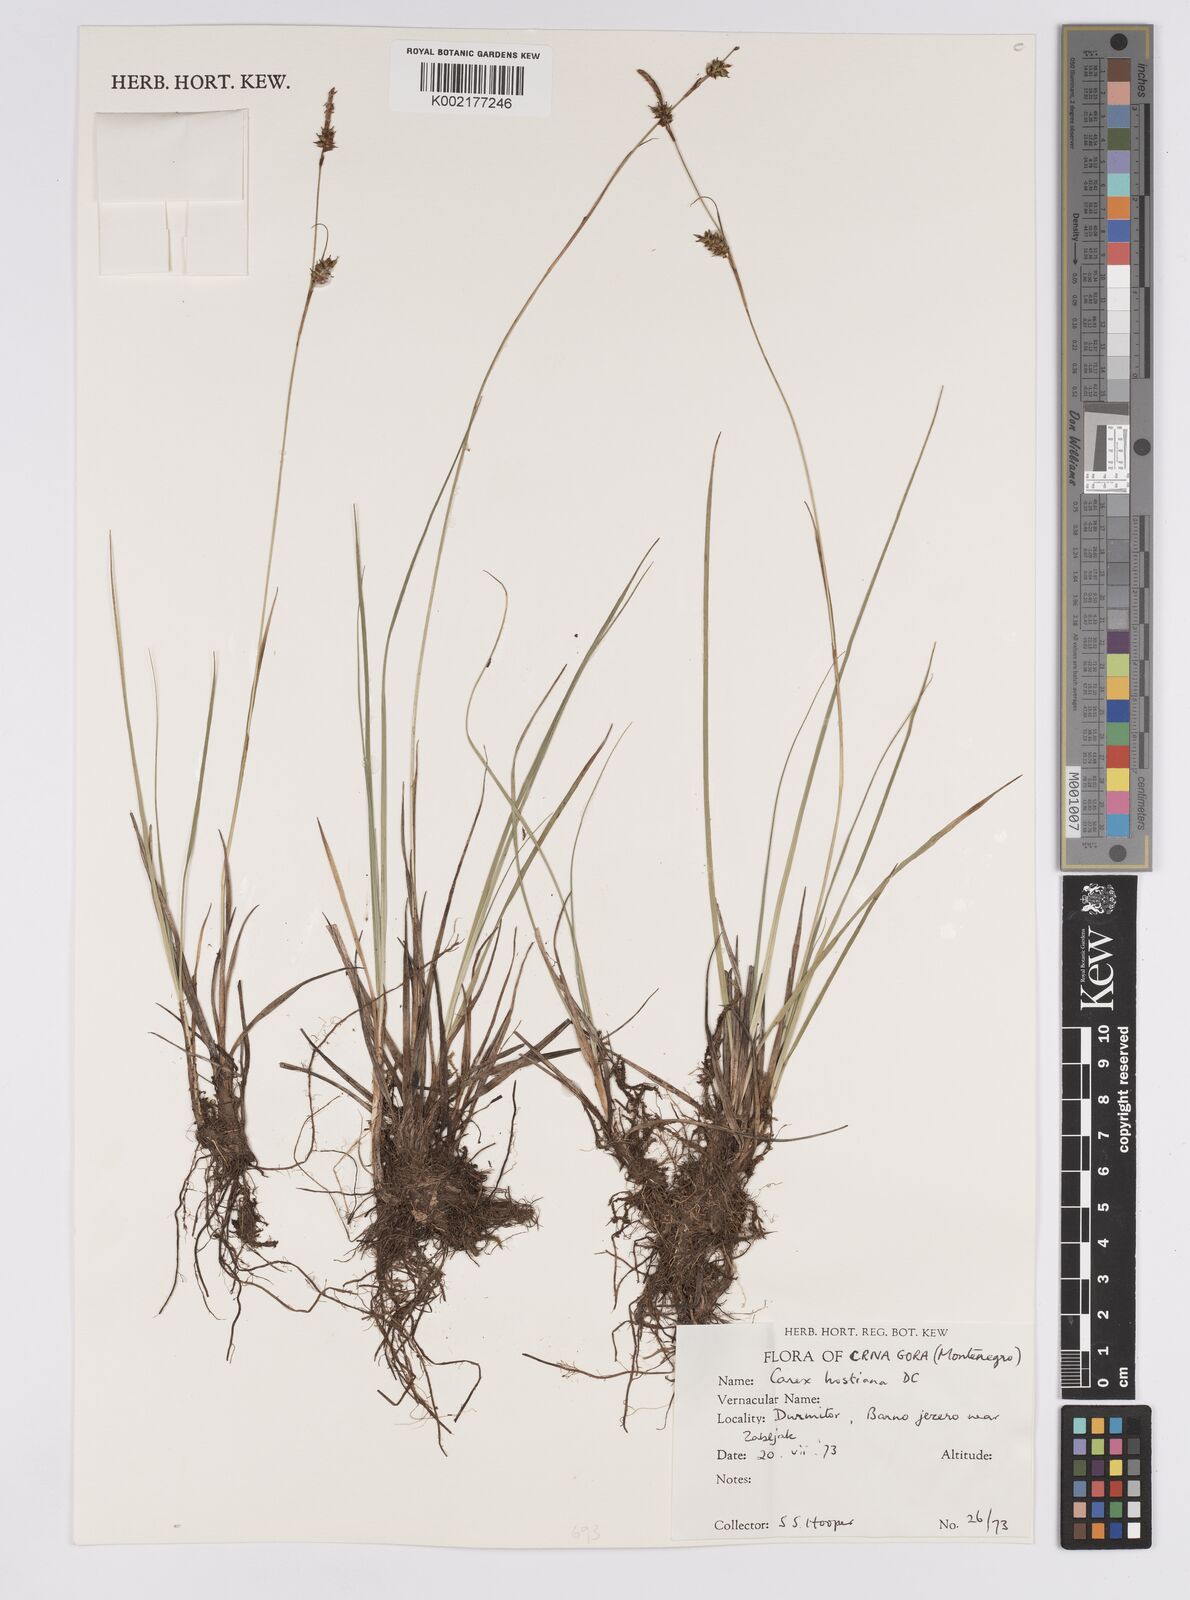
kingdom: Plantae
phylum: Tracheophyta
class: Liliopsida
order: Poales
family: Cyperaceae
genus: Carex
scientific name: Carex hostiana
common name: Tawny sedge
